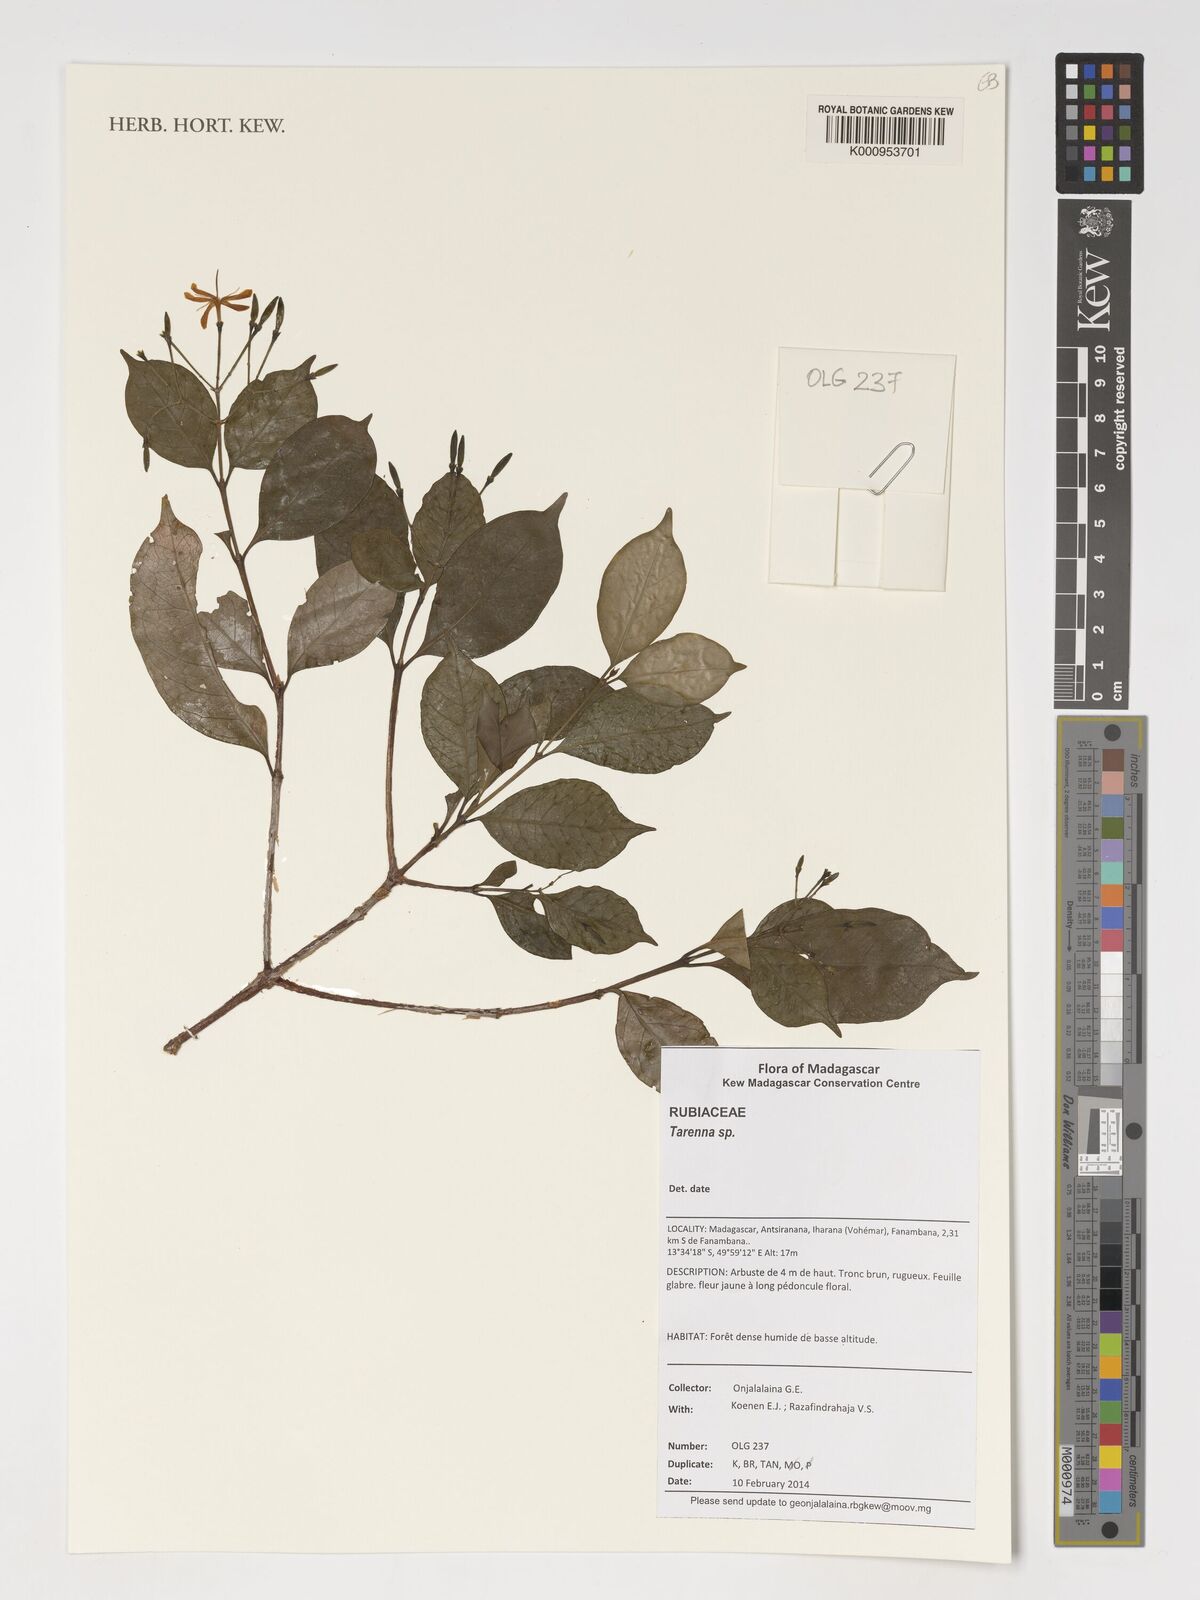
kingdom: Plantae
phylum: Tracheophyta
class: Magnoliopsida
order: Gentianales
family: Rubiaceae
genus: Tarenna
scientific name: Tarenna
